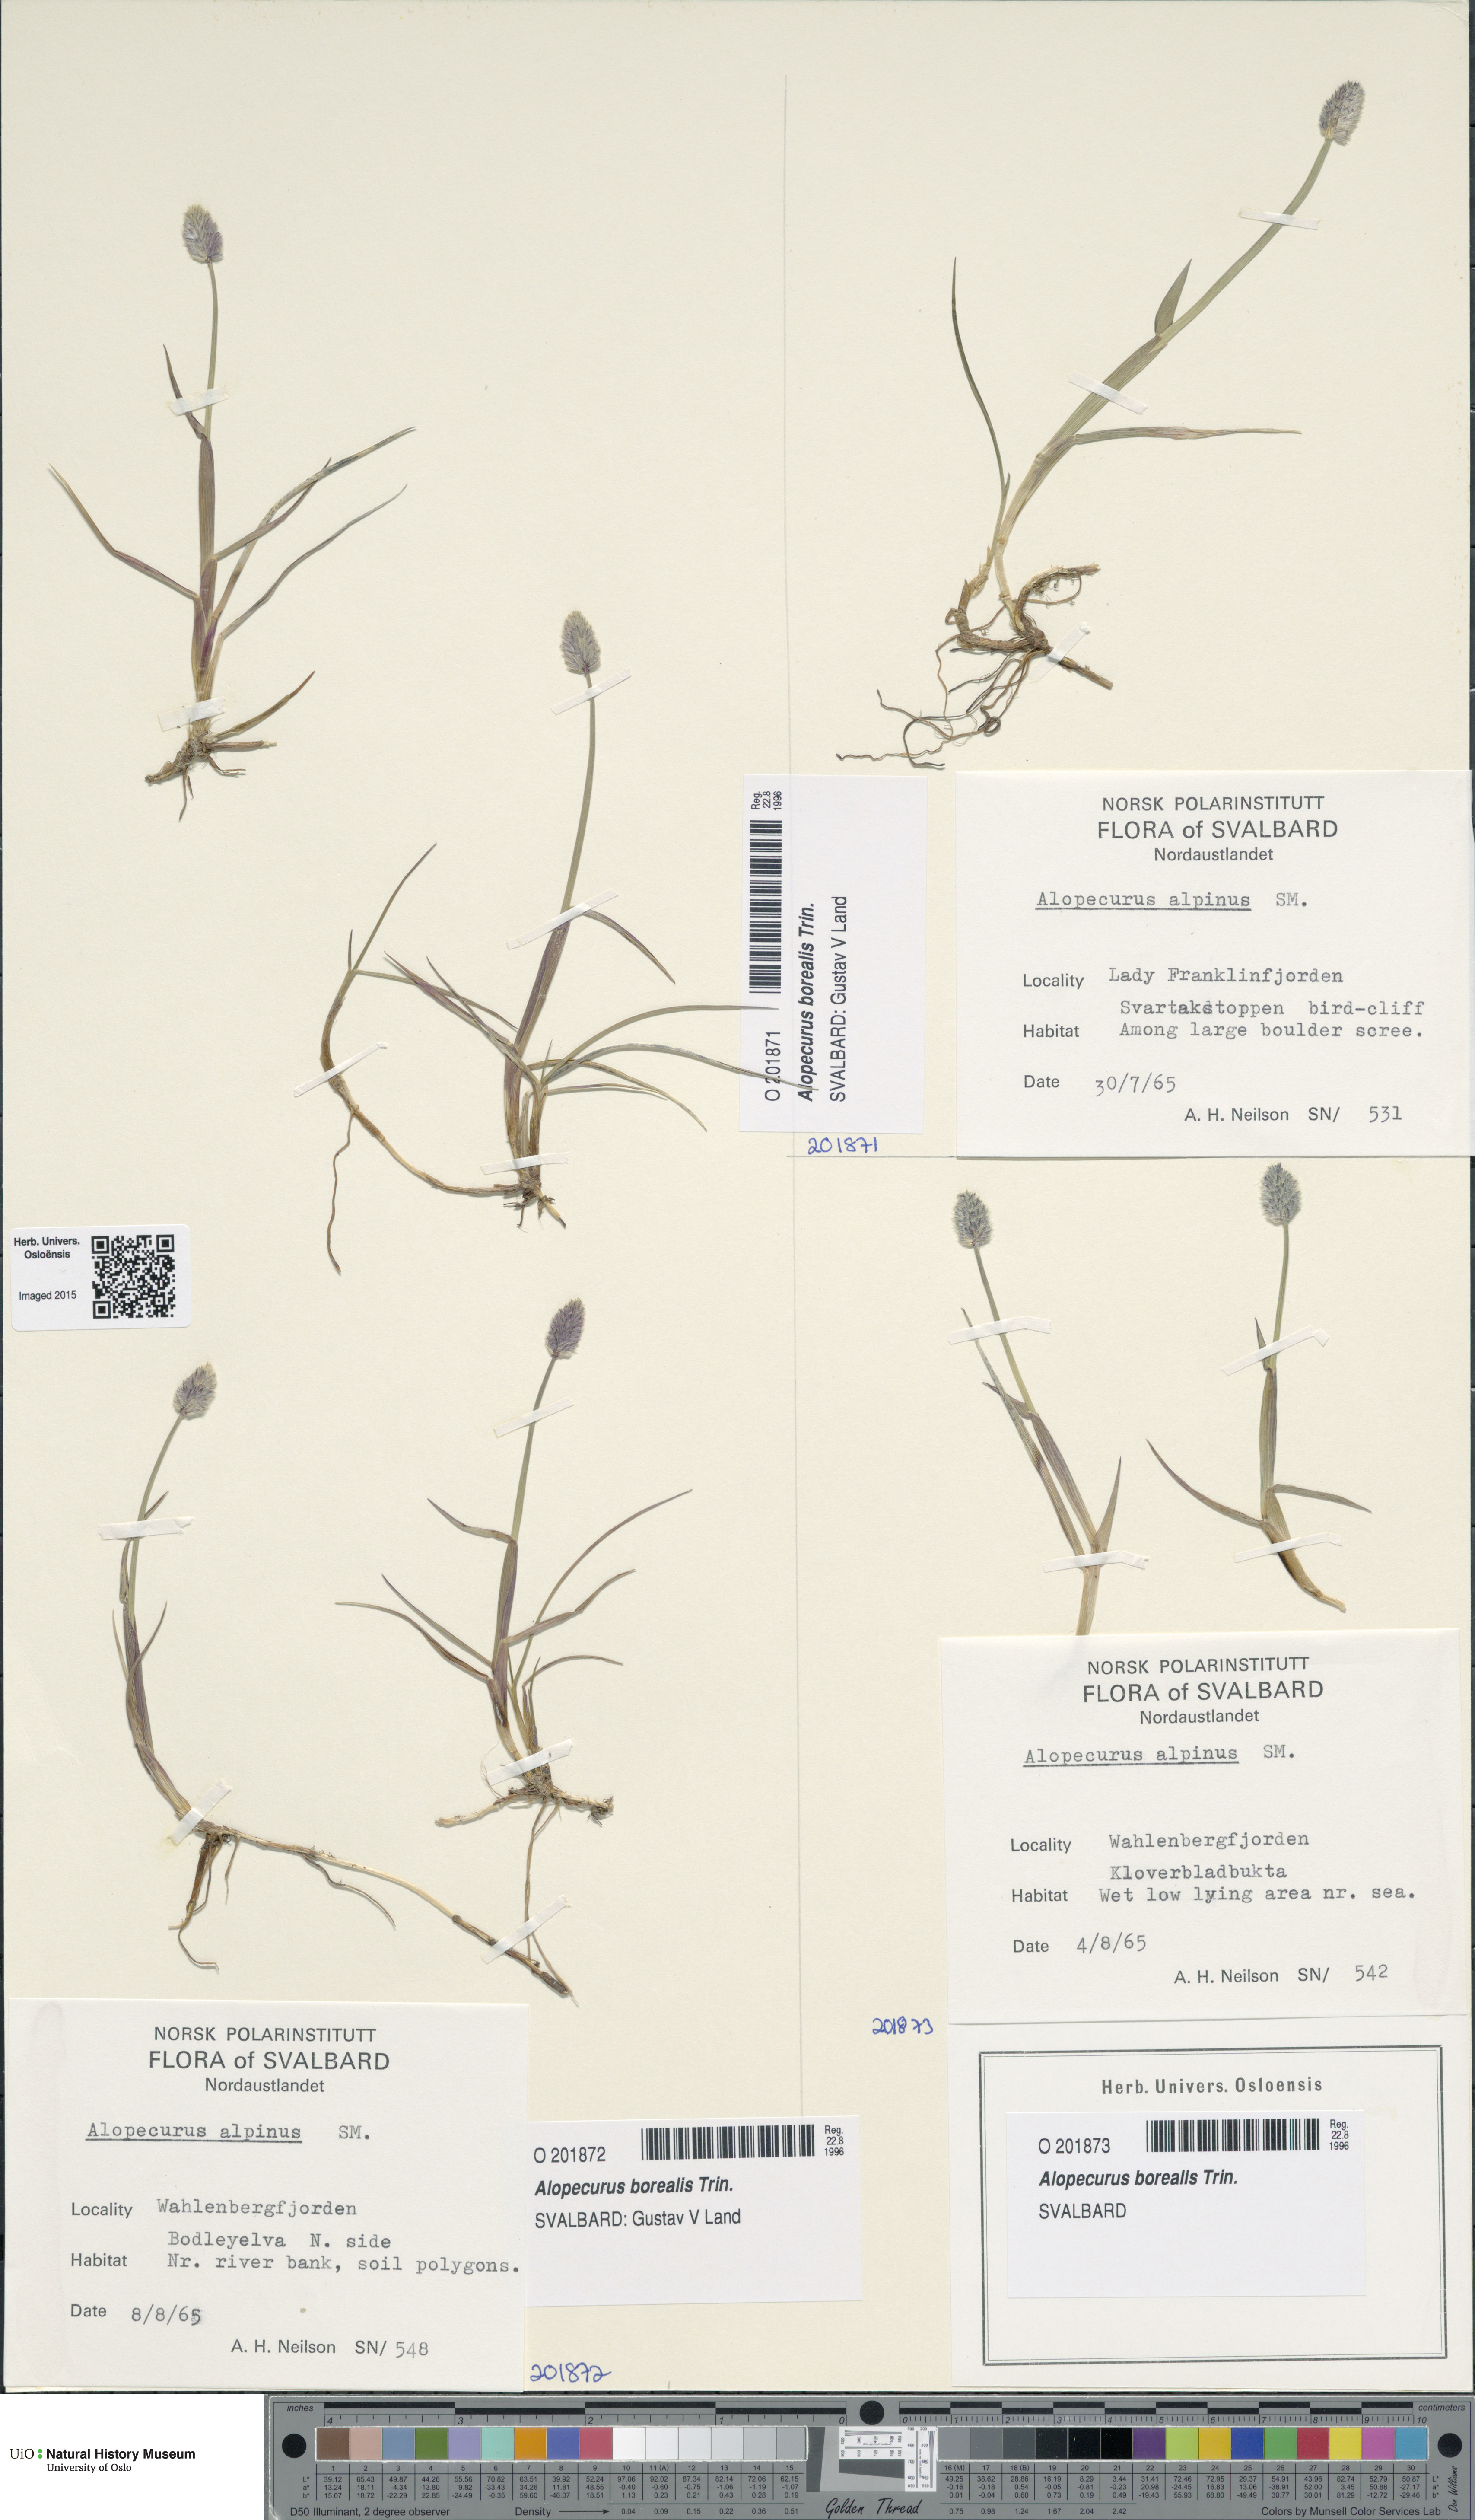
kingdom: Plantae
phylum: Tracheophyta
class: Liliopsida
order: Poales
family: Poaceae
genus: Alopecurus
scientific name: Alopecurus magellanicus
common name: Alpine foxtail
